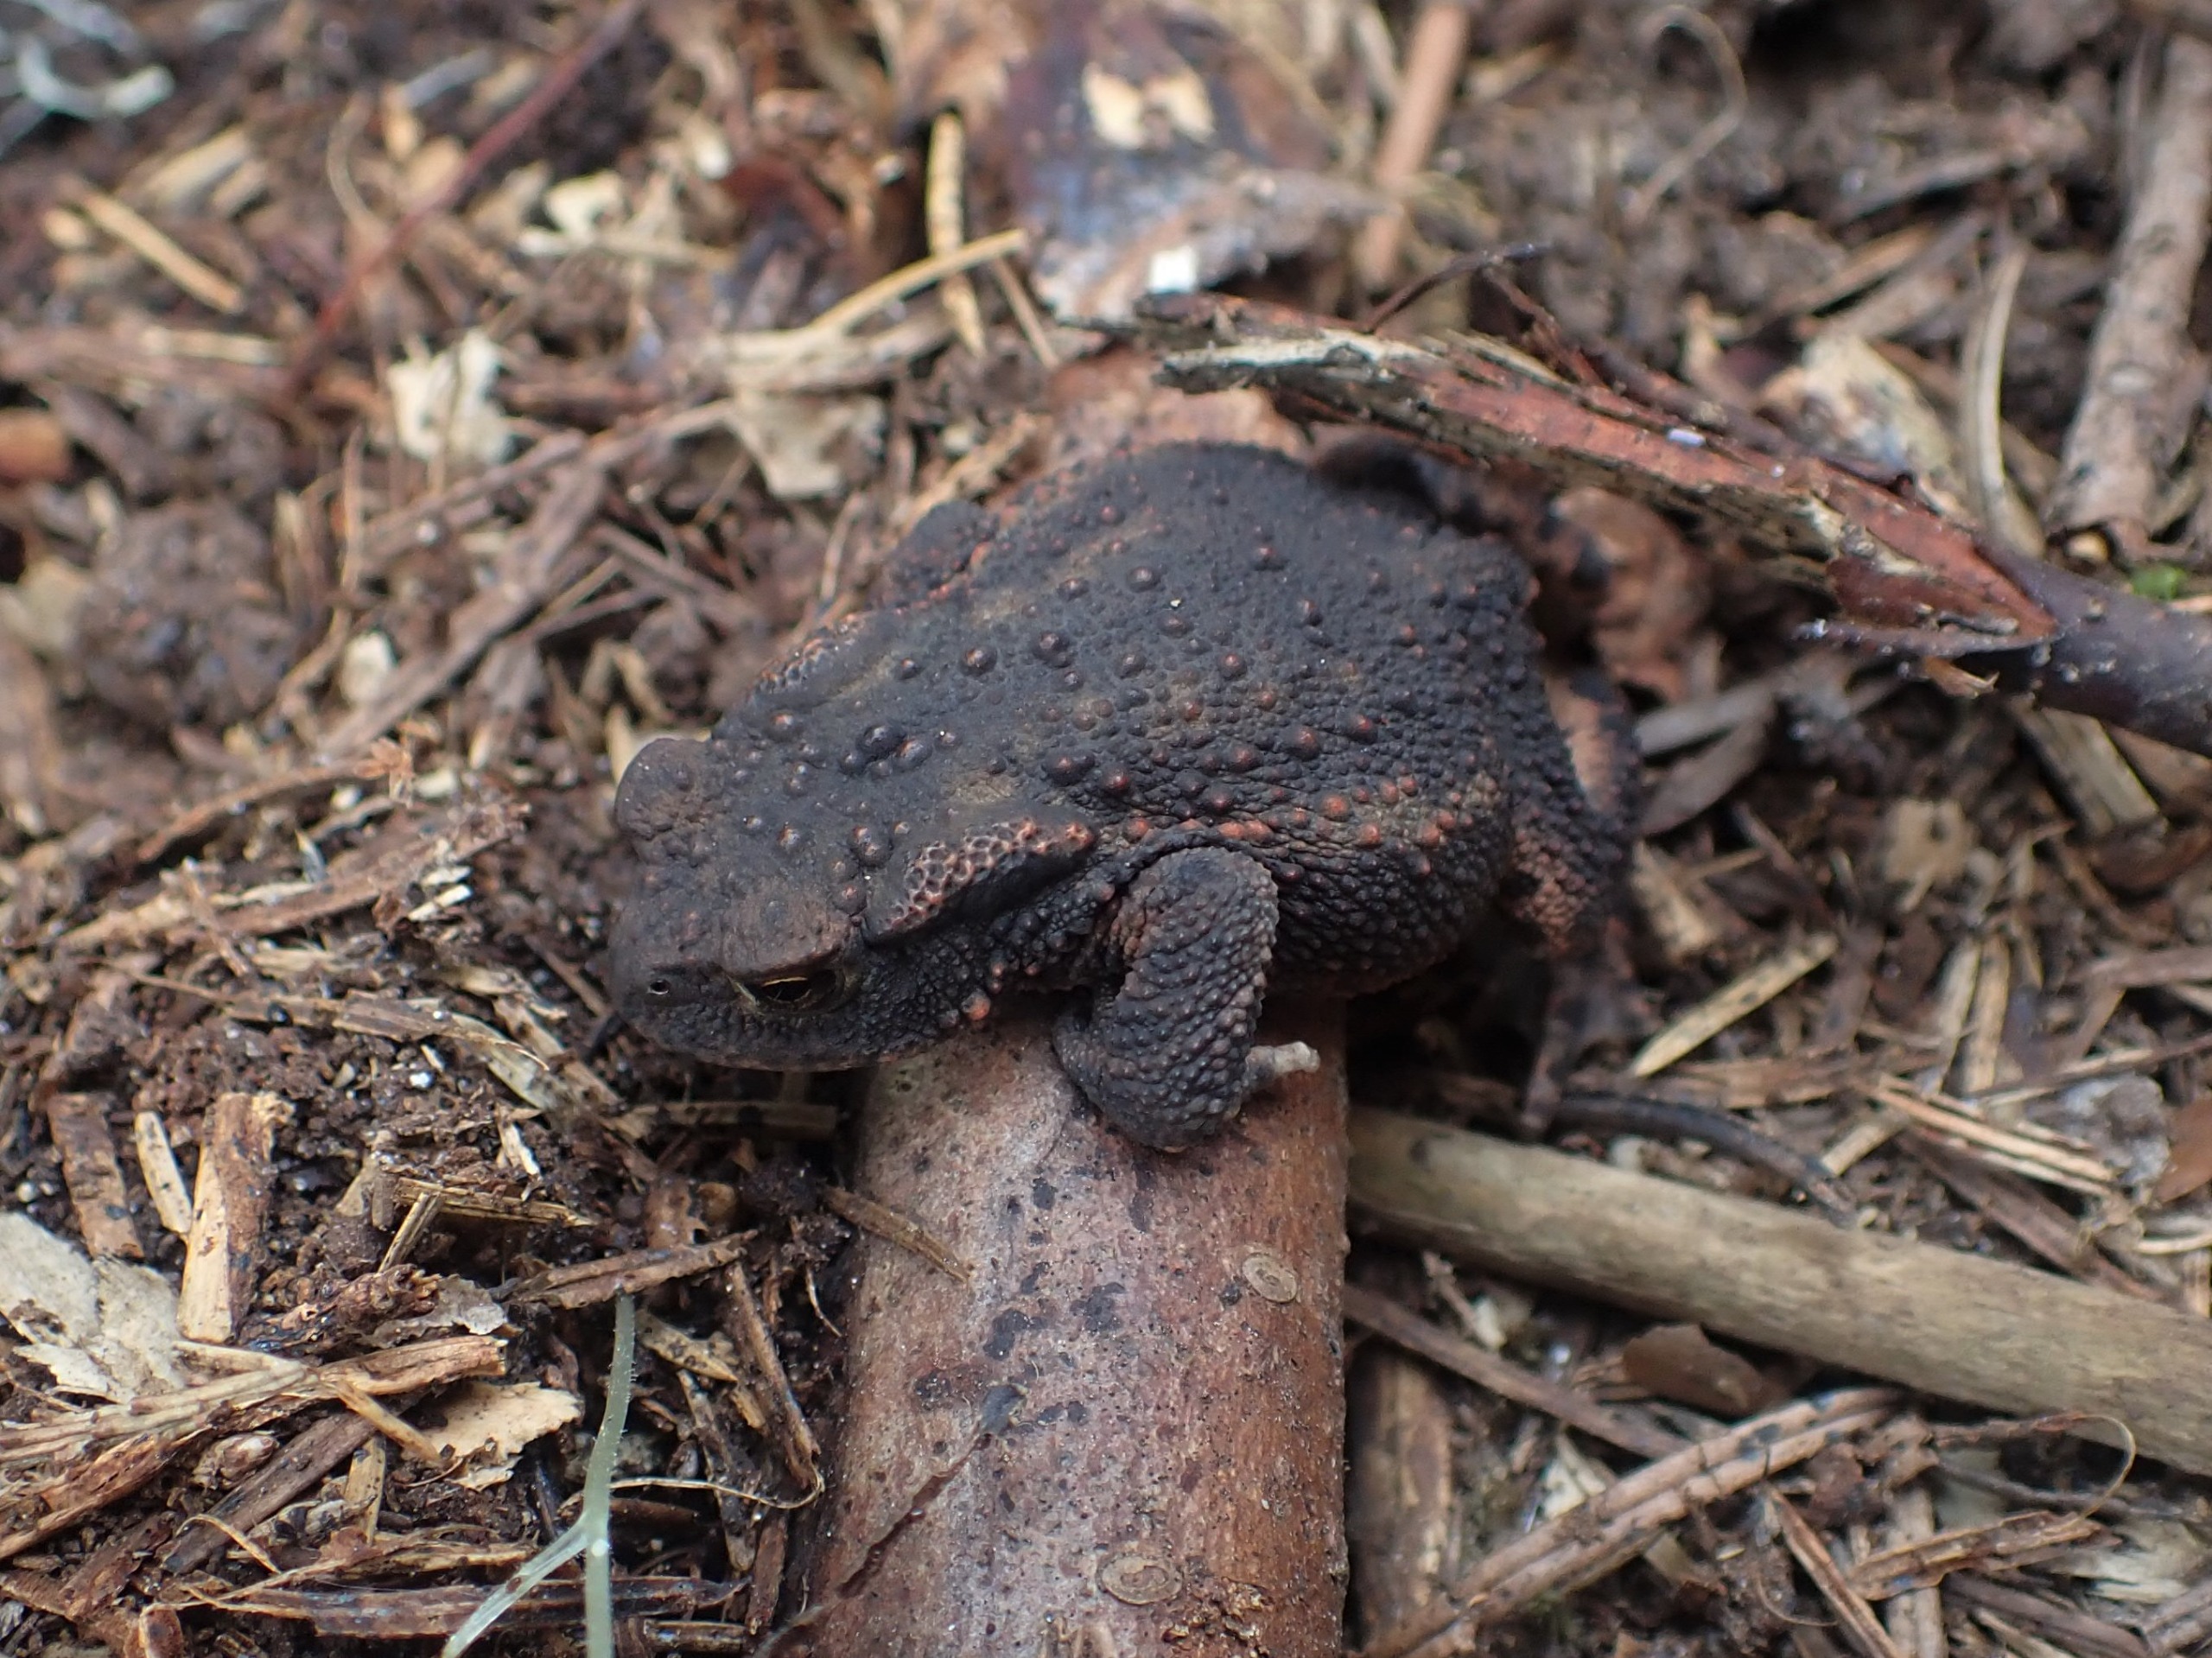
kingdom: Animalia
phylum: Chordata
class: Amphibia
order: Anura
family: Bufonidae
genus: Bufo
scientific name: Bufo bufo
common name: Skrubtudse
